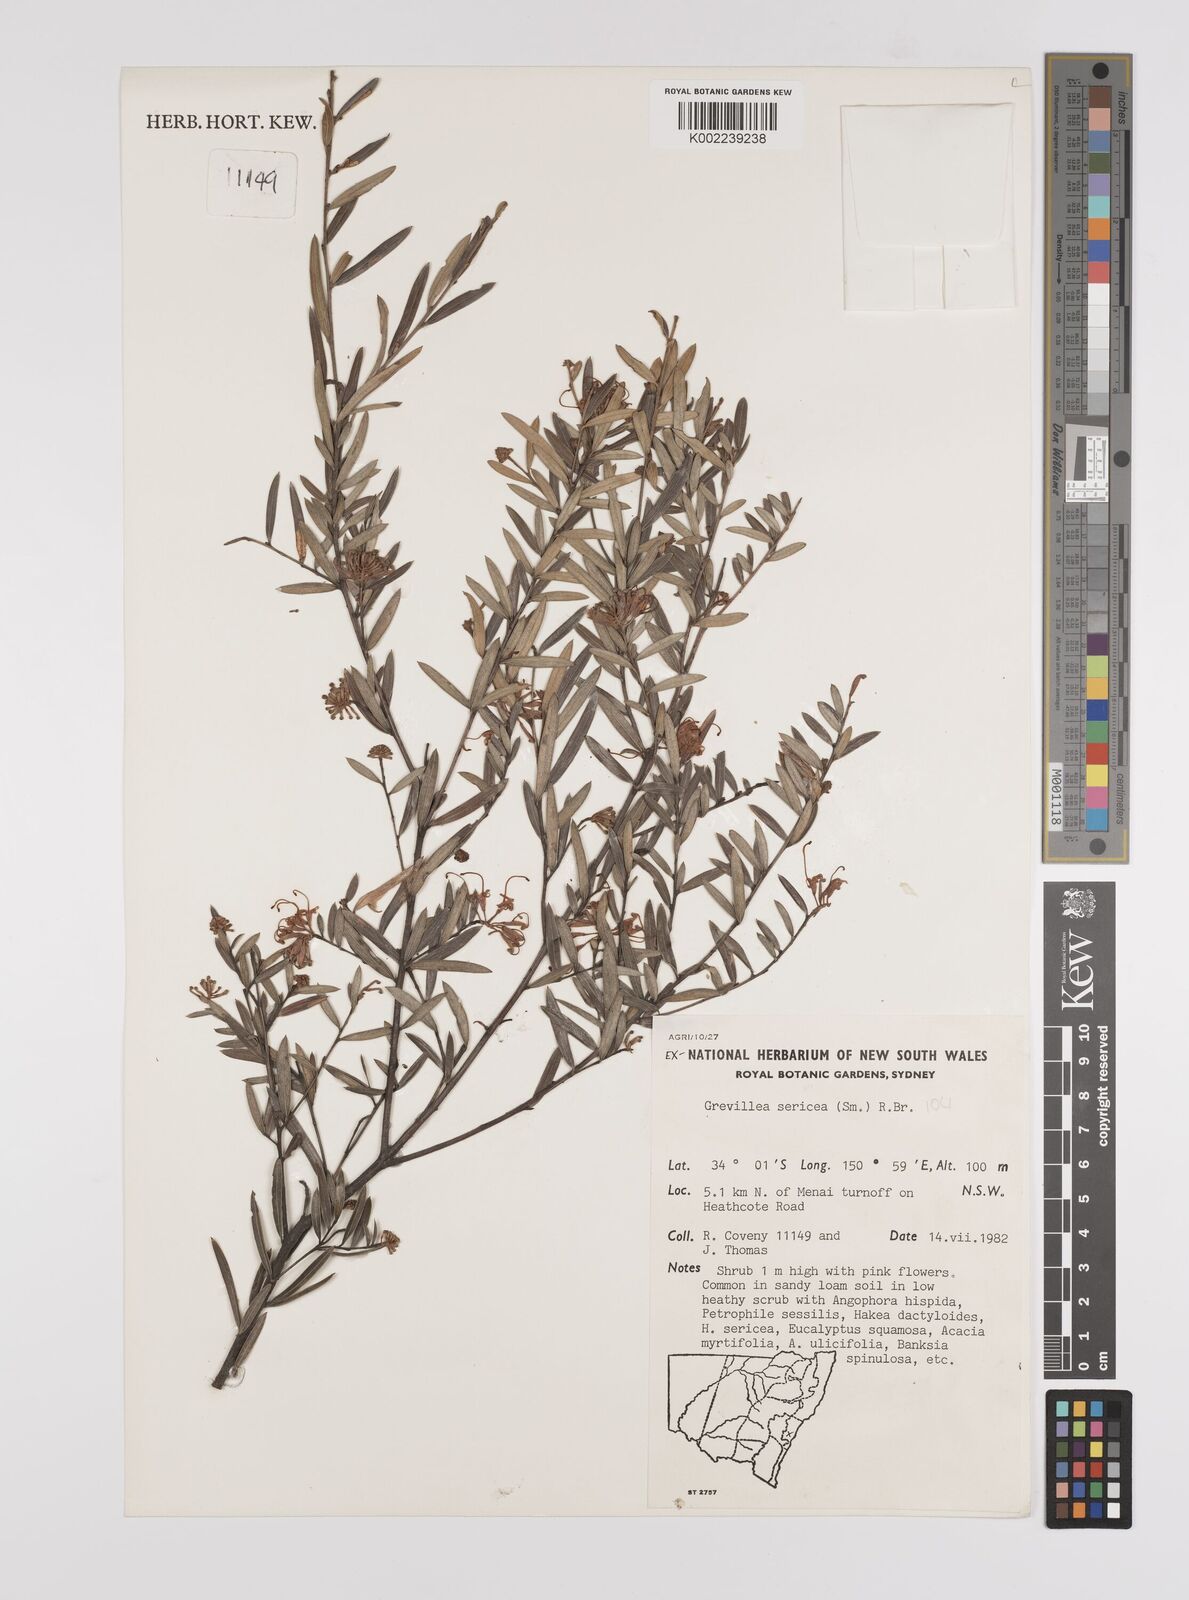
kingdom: Plantae
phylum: Tracheophyta
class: Magnoliopsida
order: Proteales
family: Proteaceae
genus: Grevillea
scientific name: Grevillea sericea
